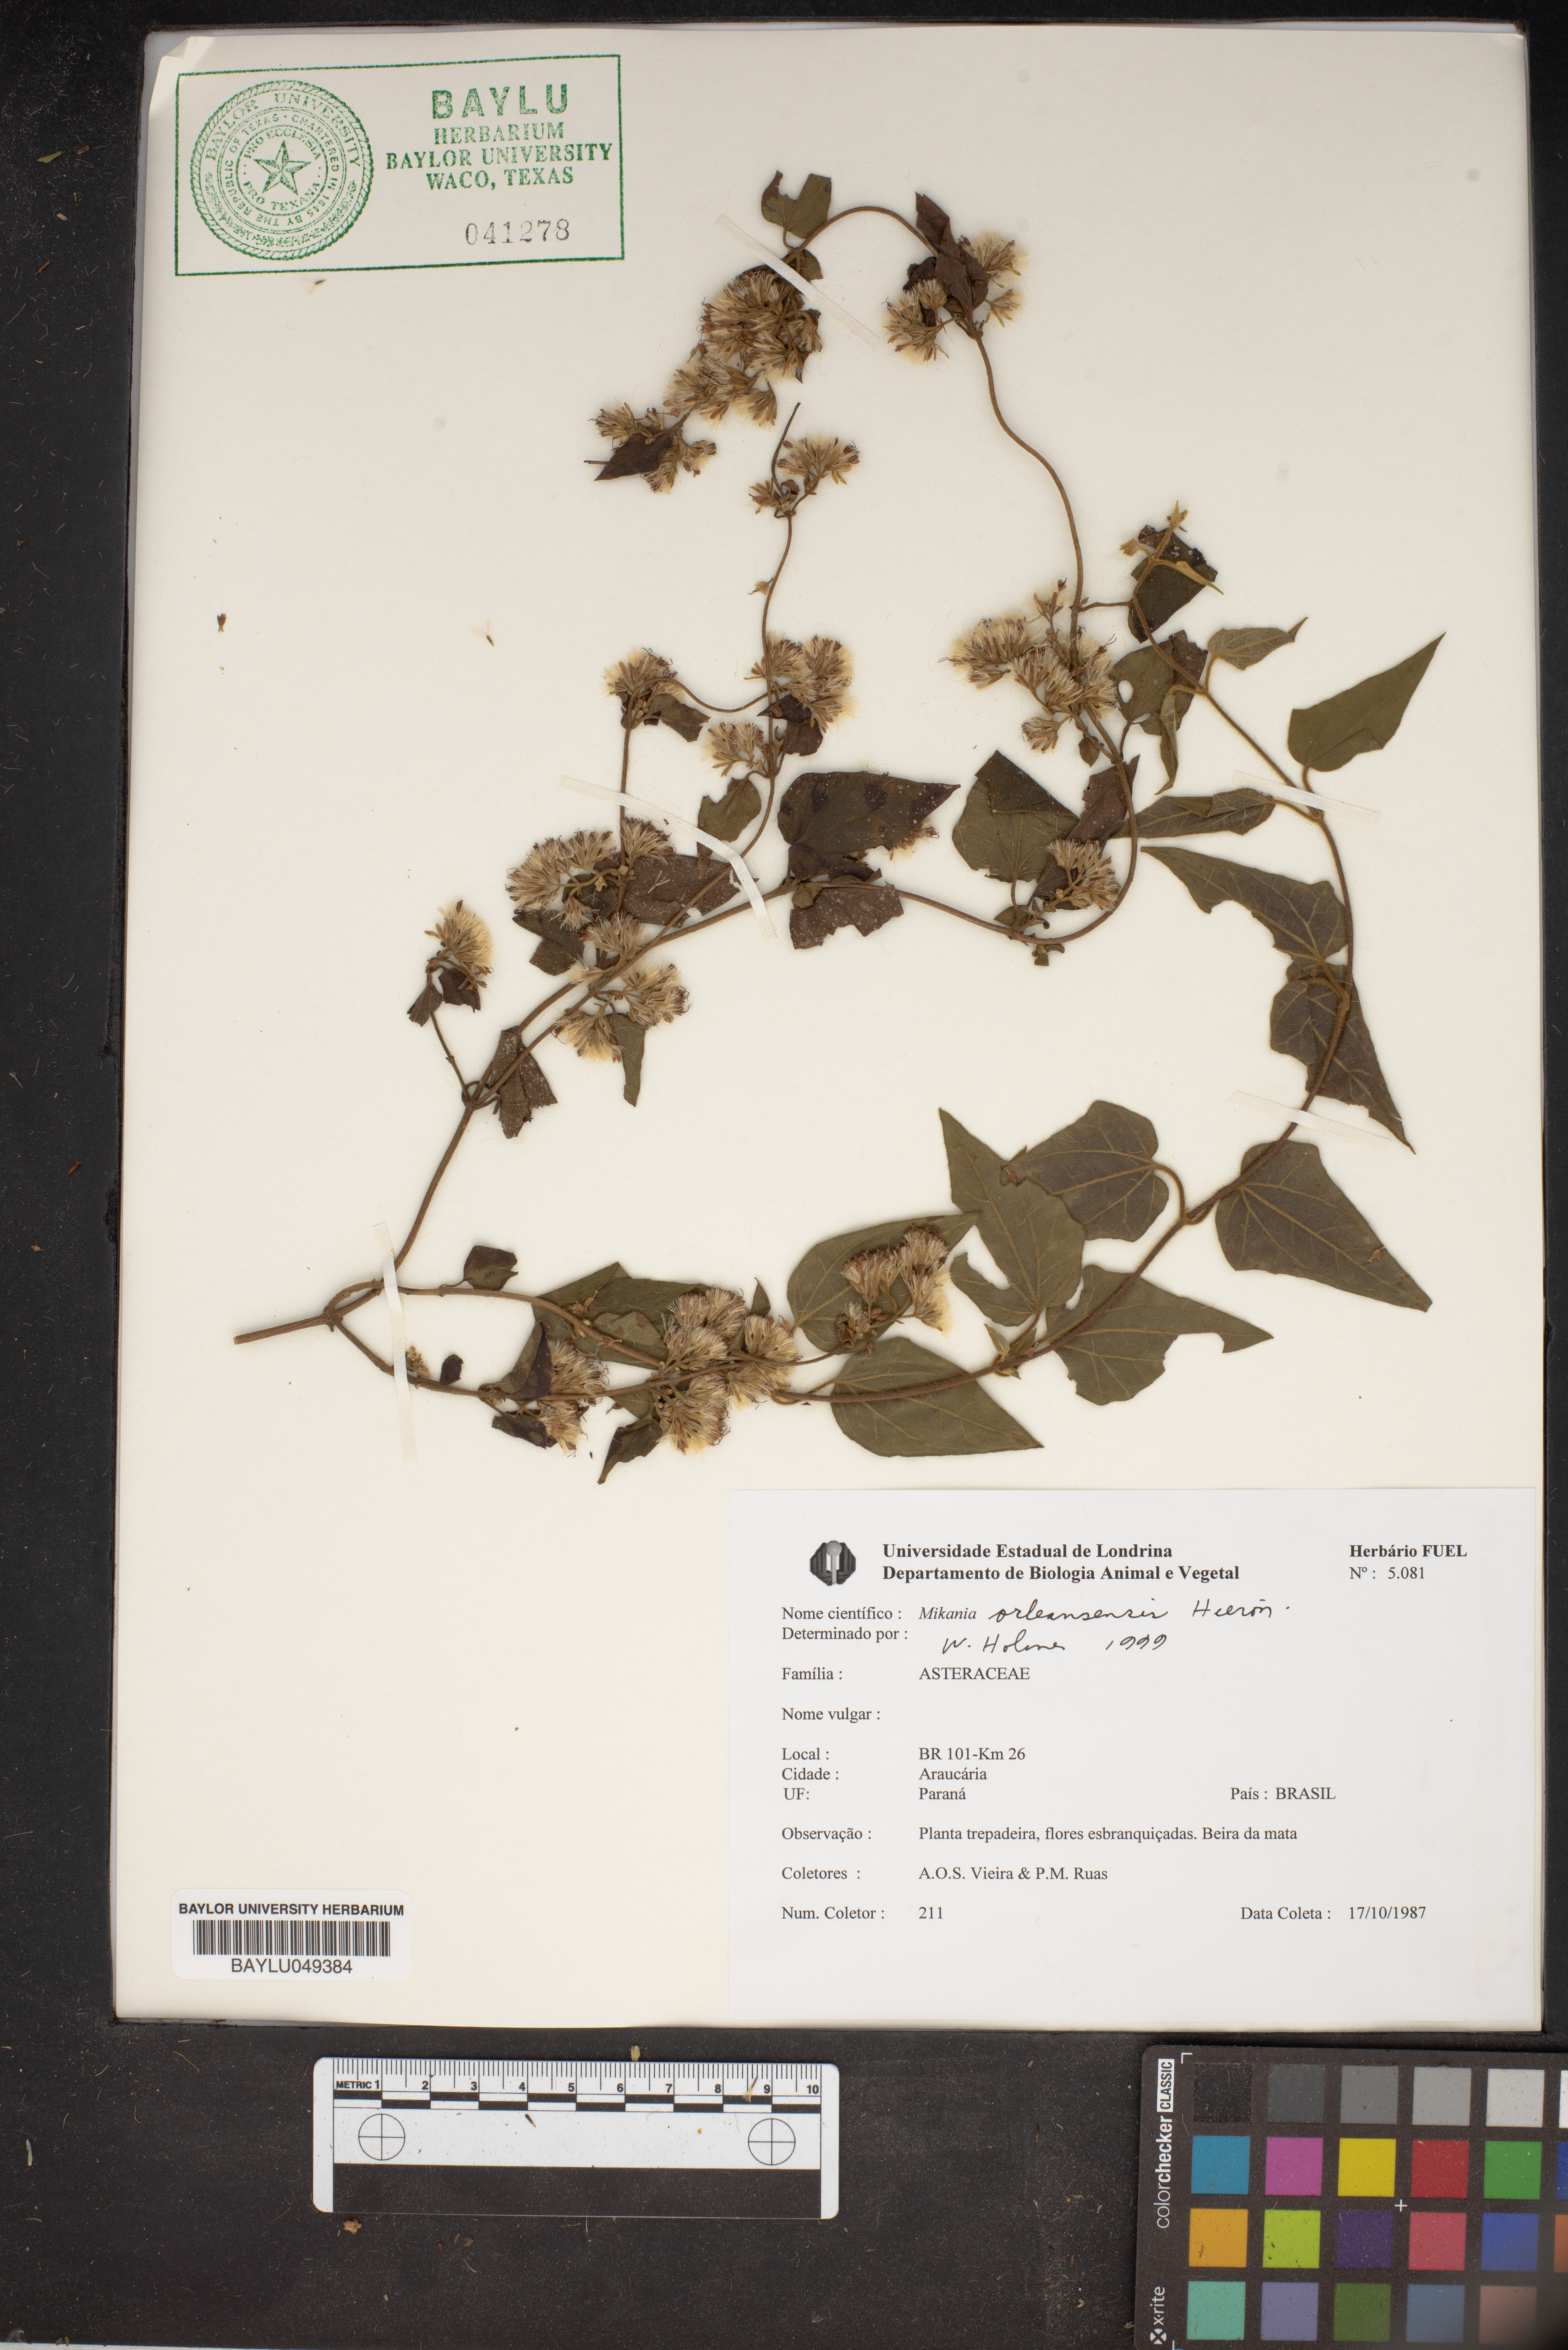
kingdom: Plantae
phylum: Tracheophyta
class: Magnoliopsida
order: Asterales
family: Asteraceae
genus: Mikania
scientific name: Mikania orleansensis
